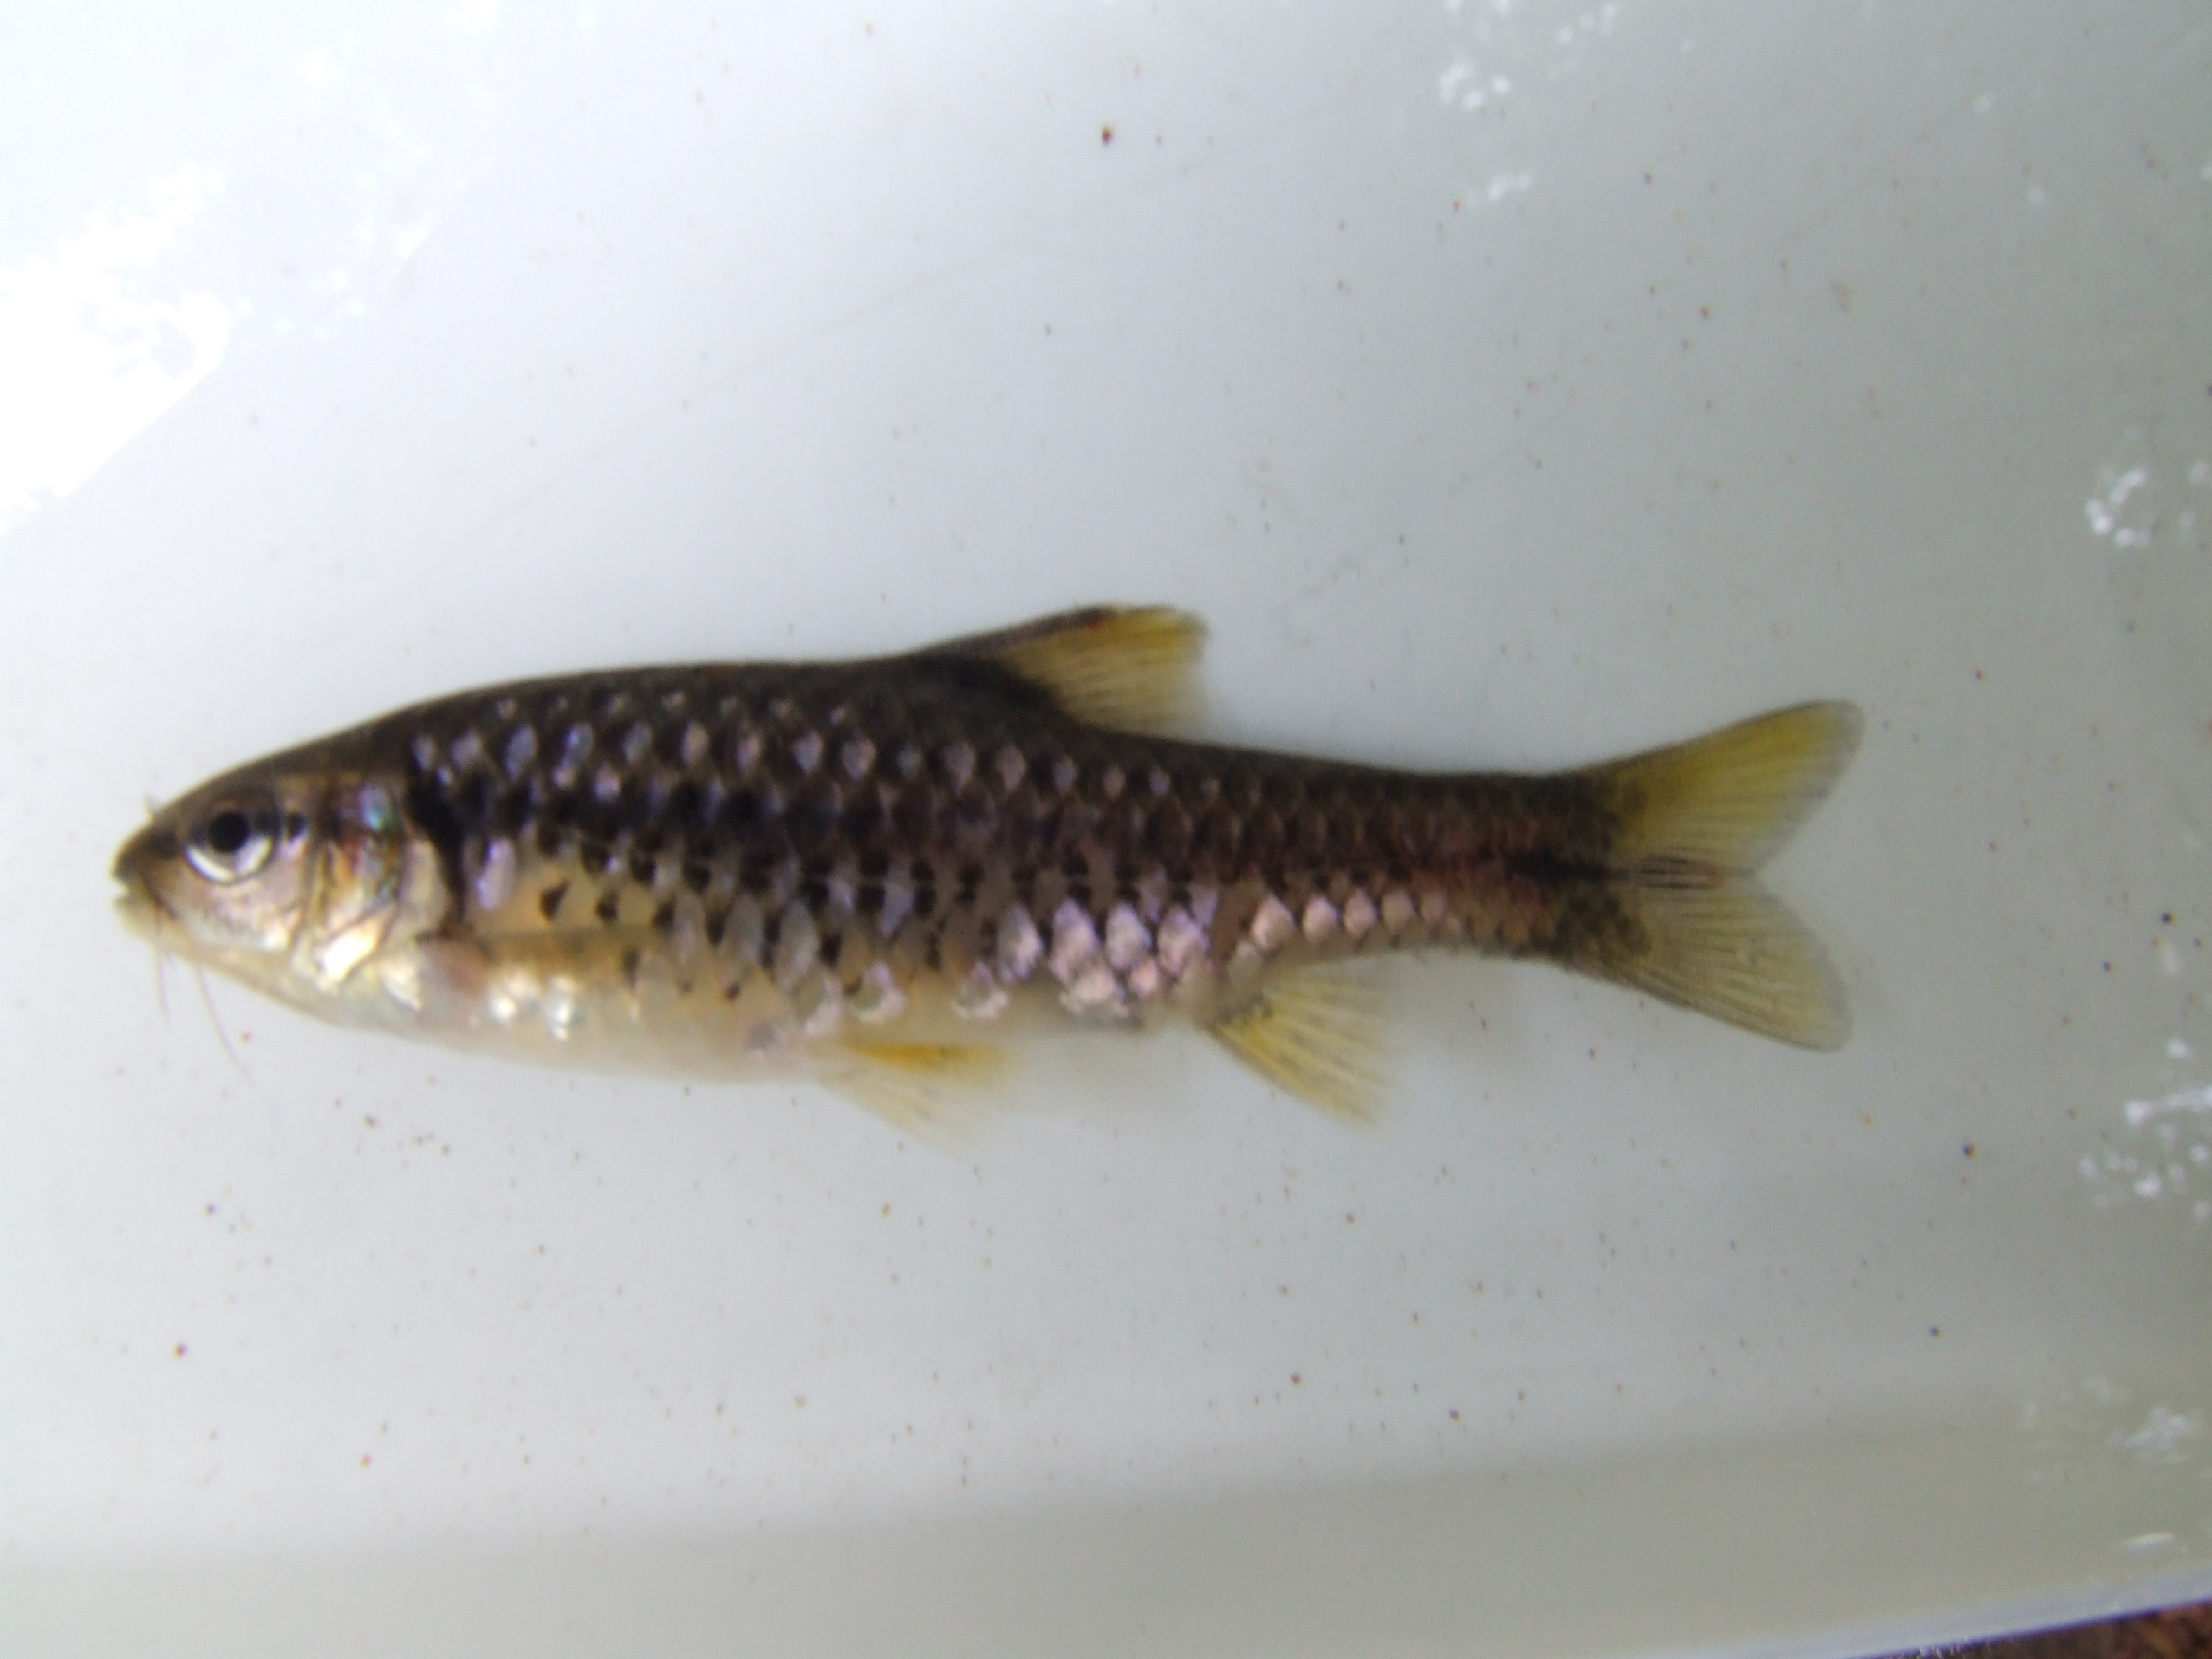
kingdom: Animalia
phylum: Chordata
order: Cypriniformes
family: Cyprinidae
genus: Barbus
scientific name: Barbus
